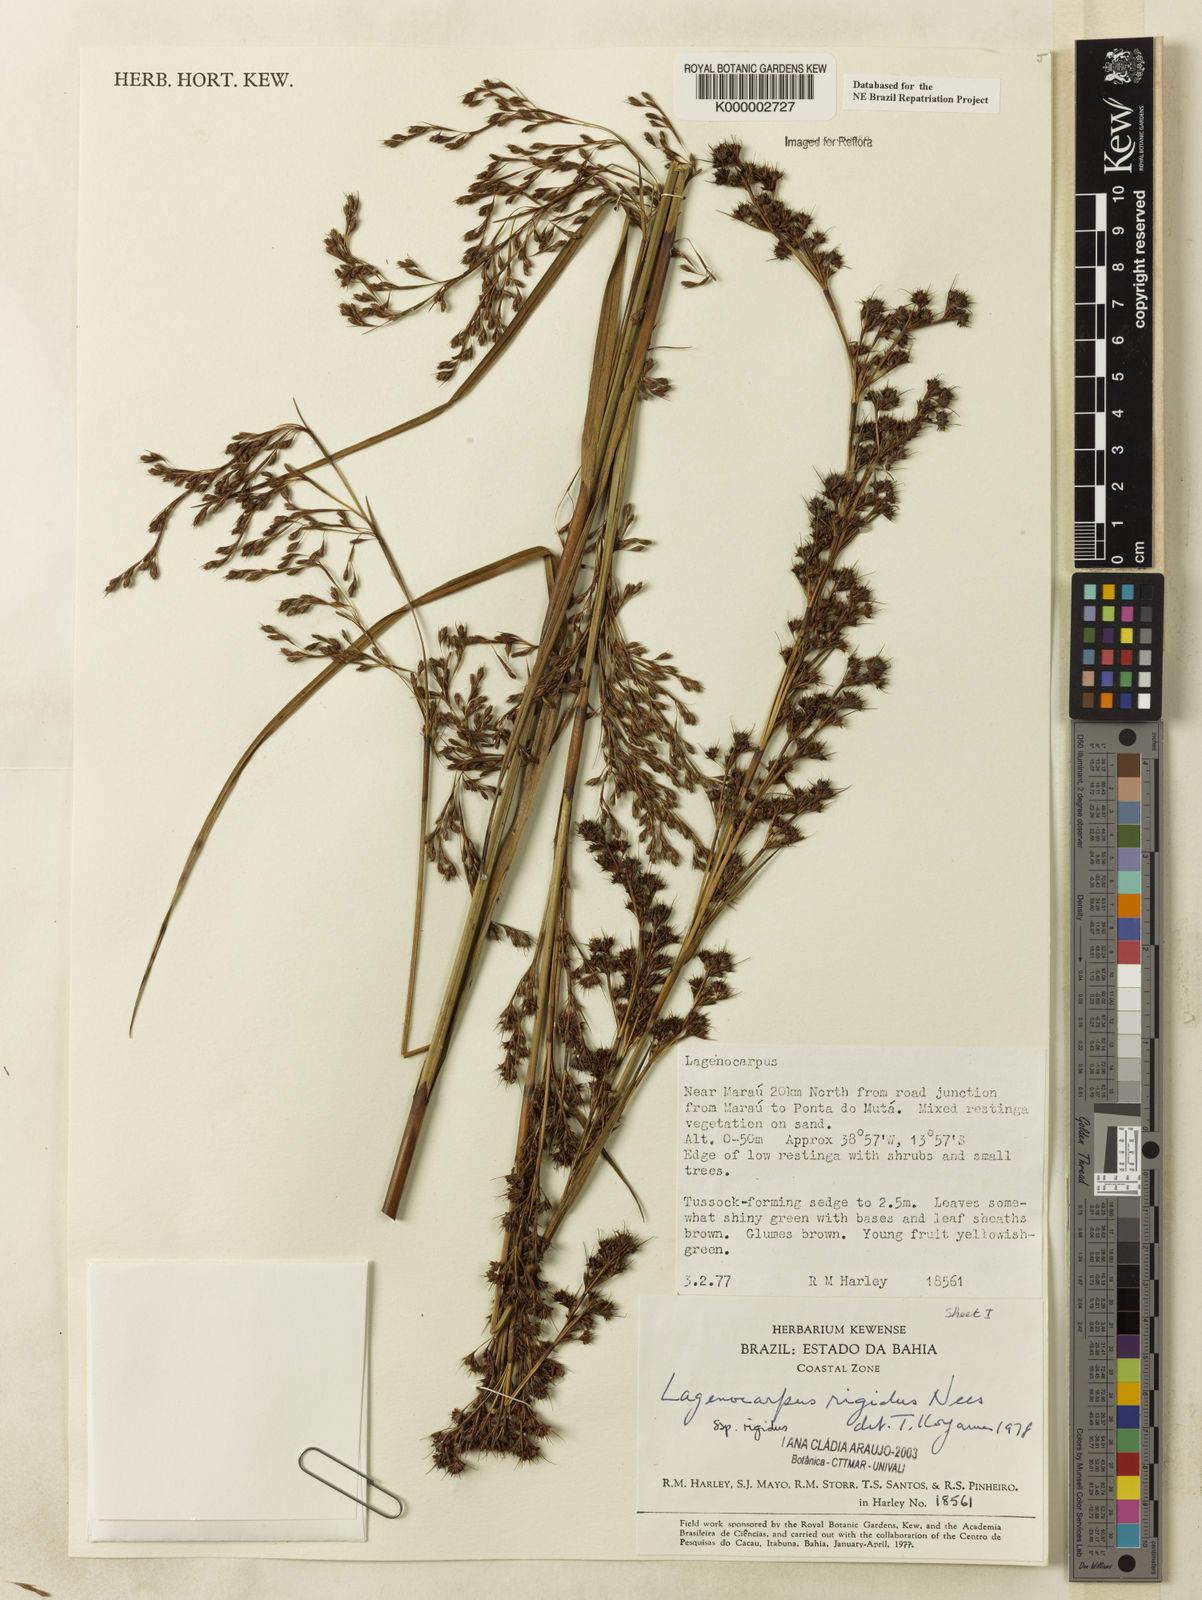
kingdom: Plantae
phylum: Tracheophyta
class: Liliopsida
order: Poales
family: Cyperaceae
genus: Lagenocarpus
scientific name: Lagenocarpus rigidus
